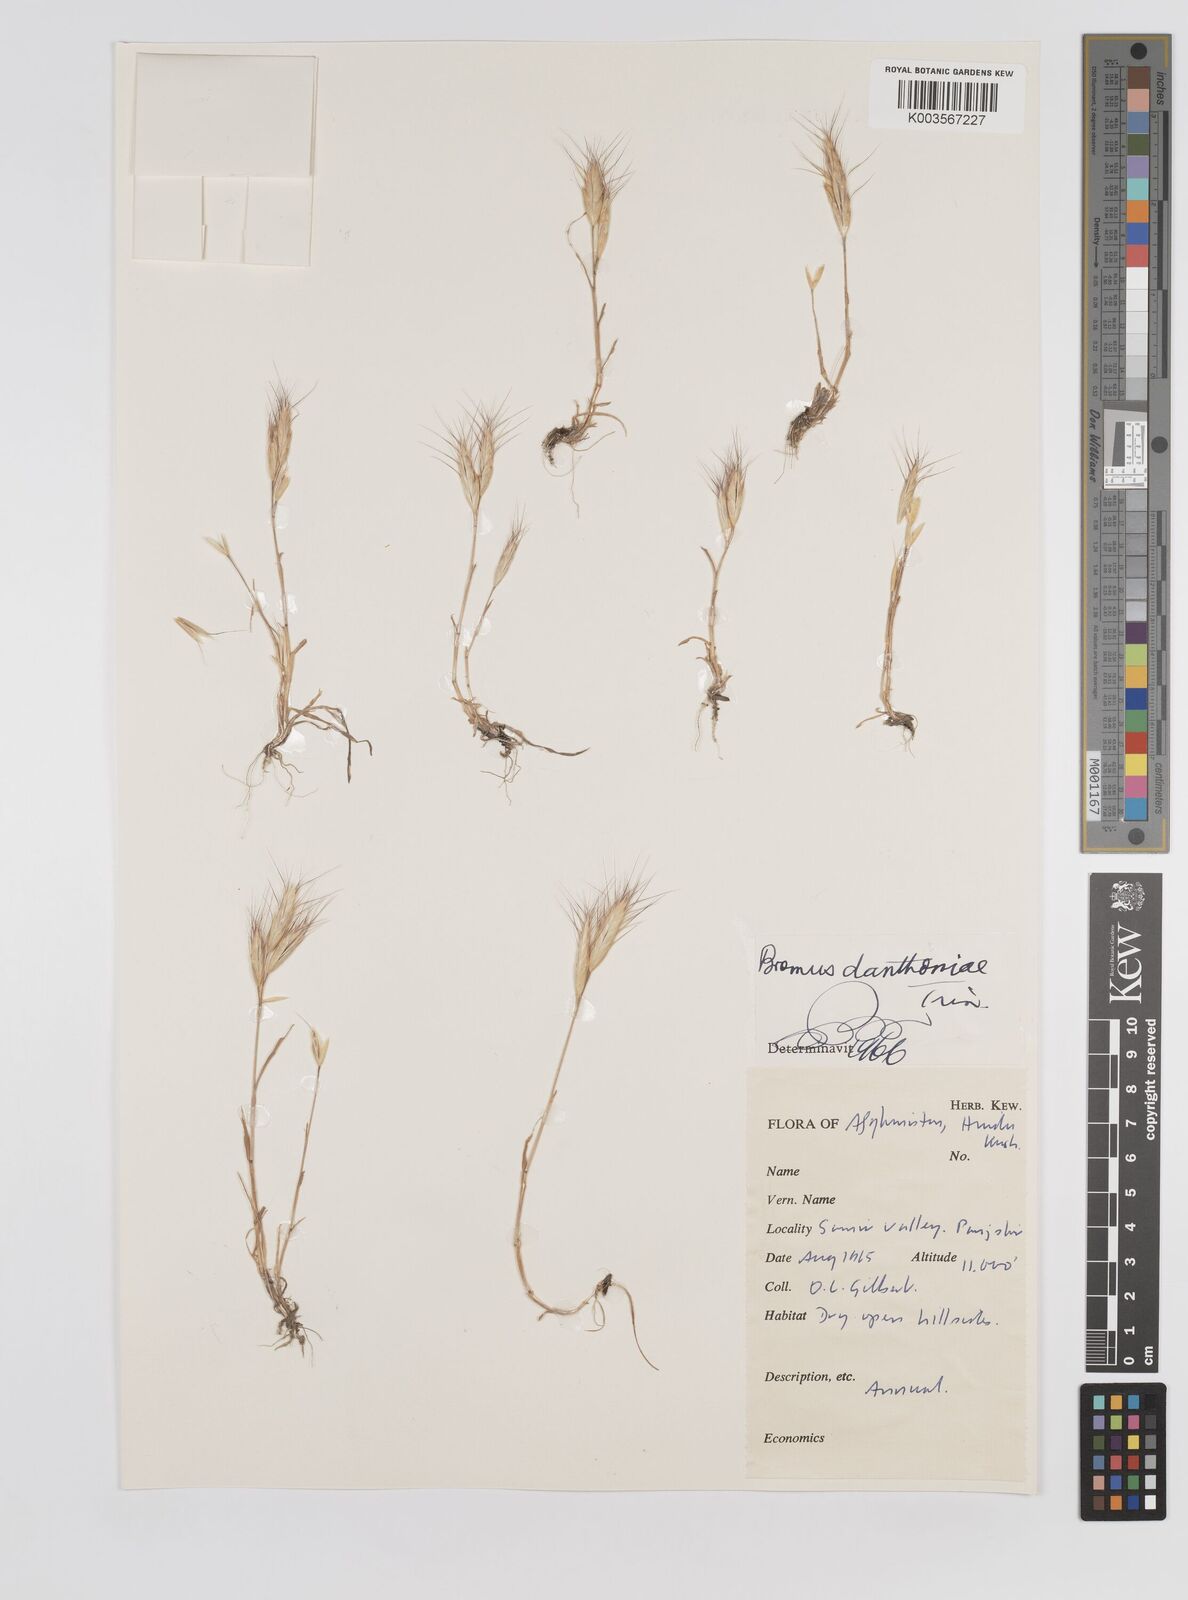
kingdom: Plantae
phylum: Tracheophyta
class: Liliopsida
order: Poales
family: Poaceae
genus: Bromus
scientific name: Bromus danthoniae
